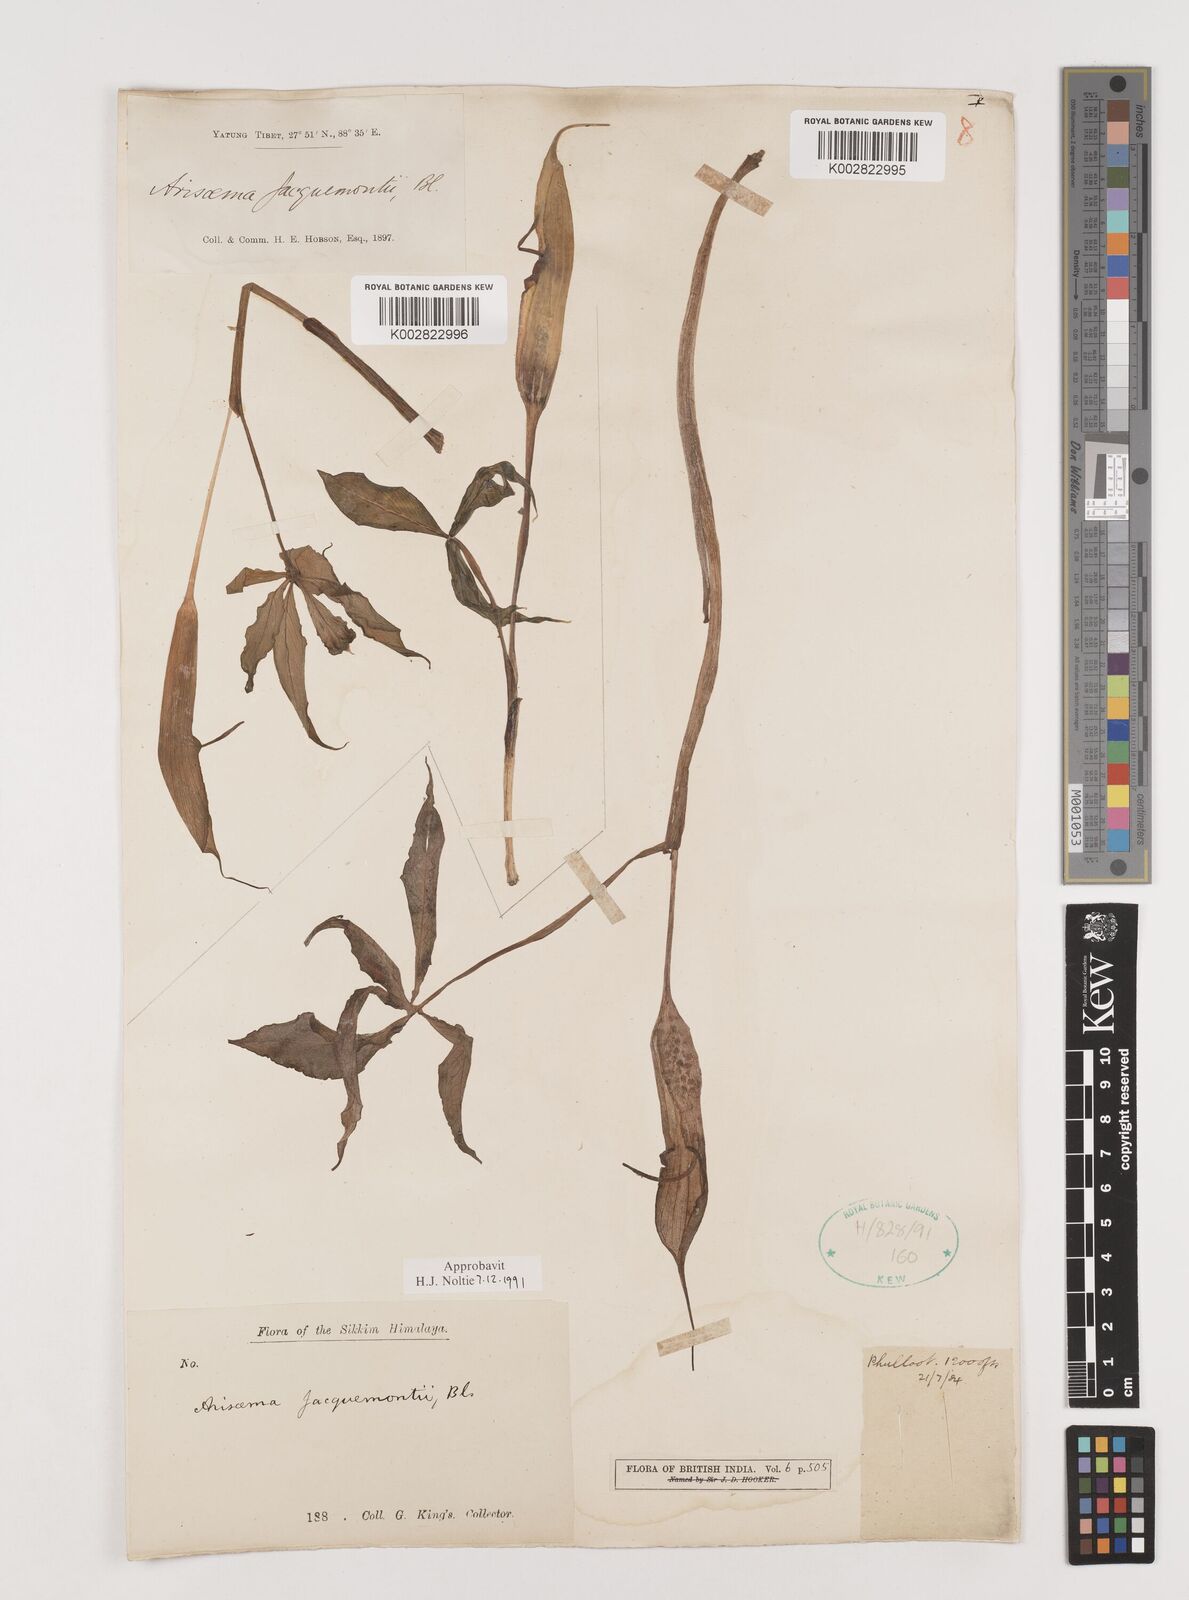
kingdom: Plantae
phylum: Tracheophyta
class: Liliopsida
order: Alismatales
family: Araceae
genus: Arisaema
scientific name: Arisaema jacquemontii
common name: Jacquemont's cobra-lily
